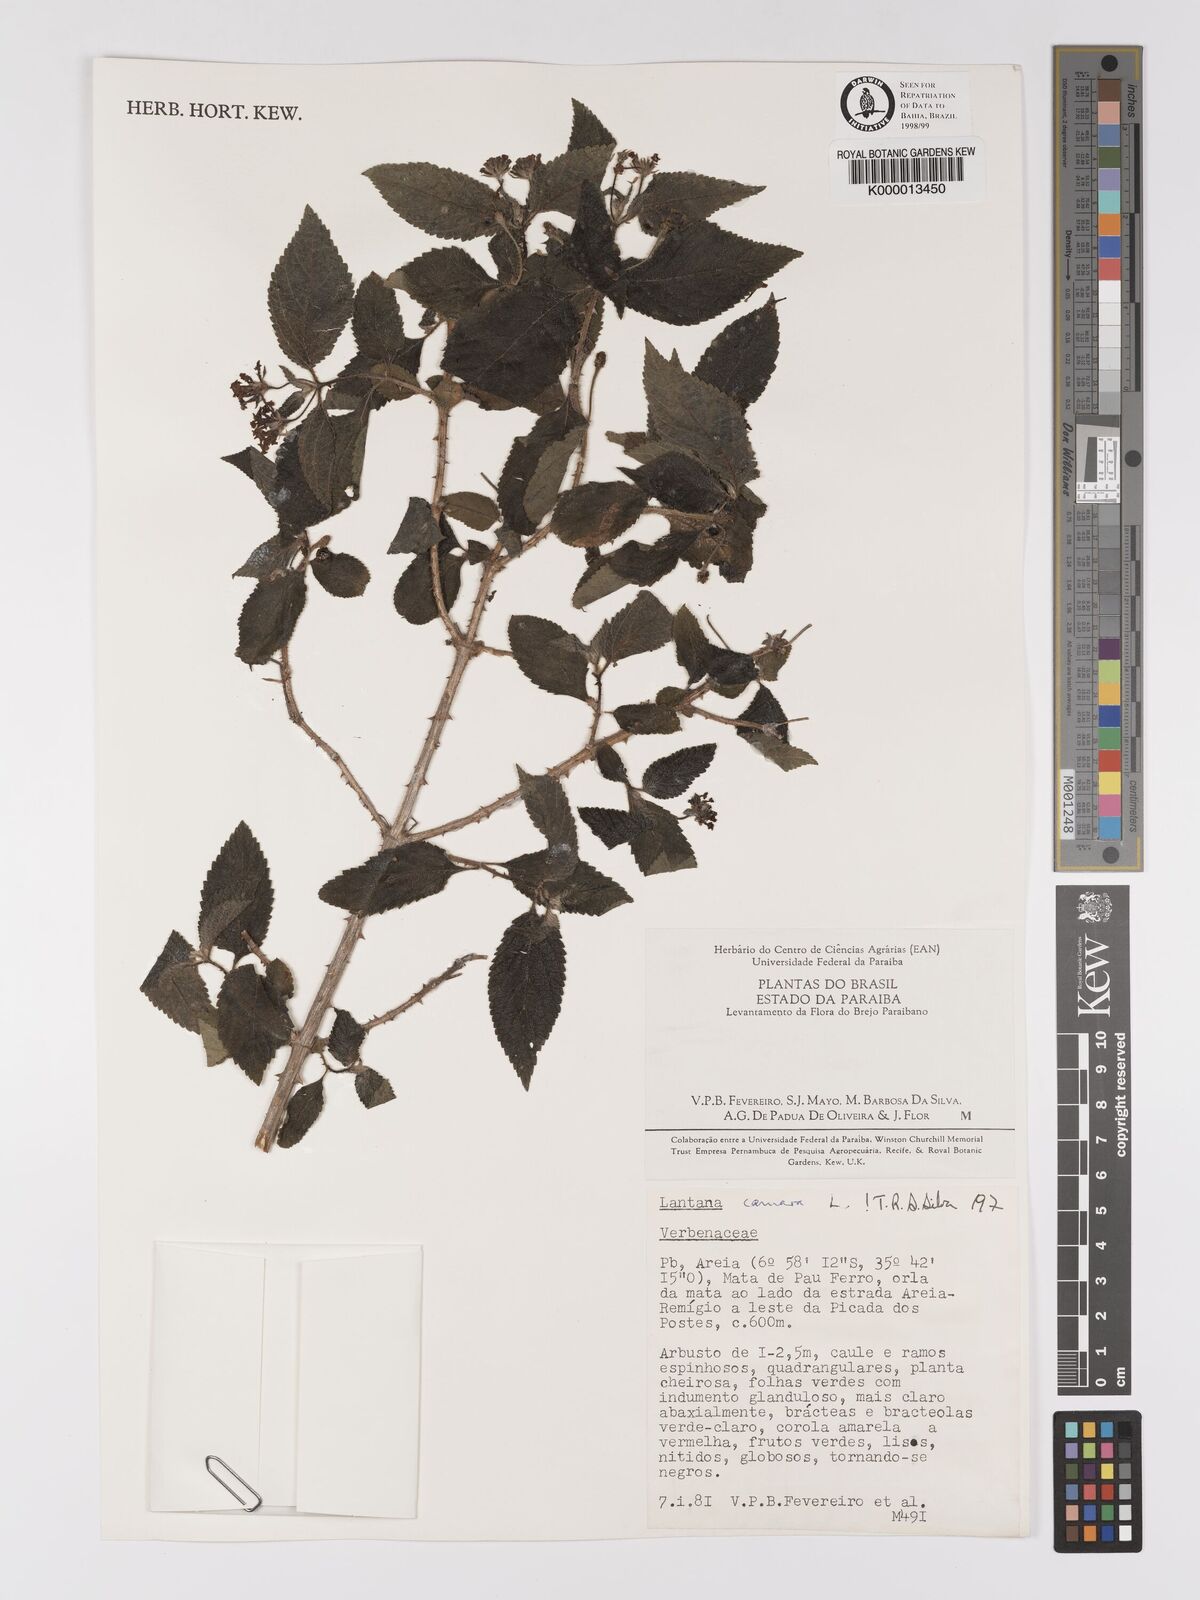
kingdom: Plantae
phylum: Tracheophyta
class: Magnoliopsida
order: Lamiales
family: Verbenaceae
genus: Lantana
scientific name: Lantana camara
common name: Lantana
